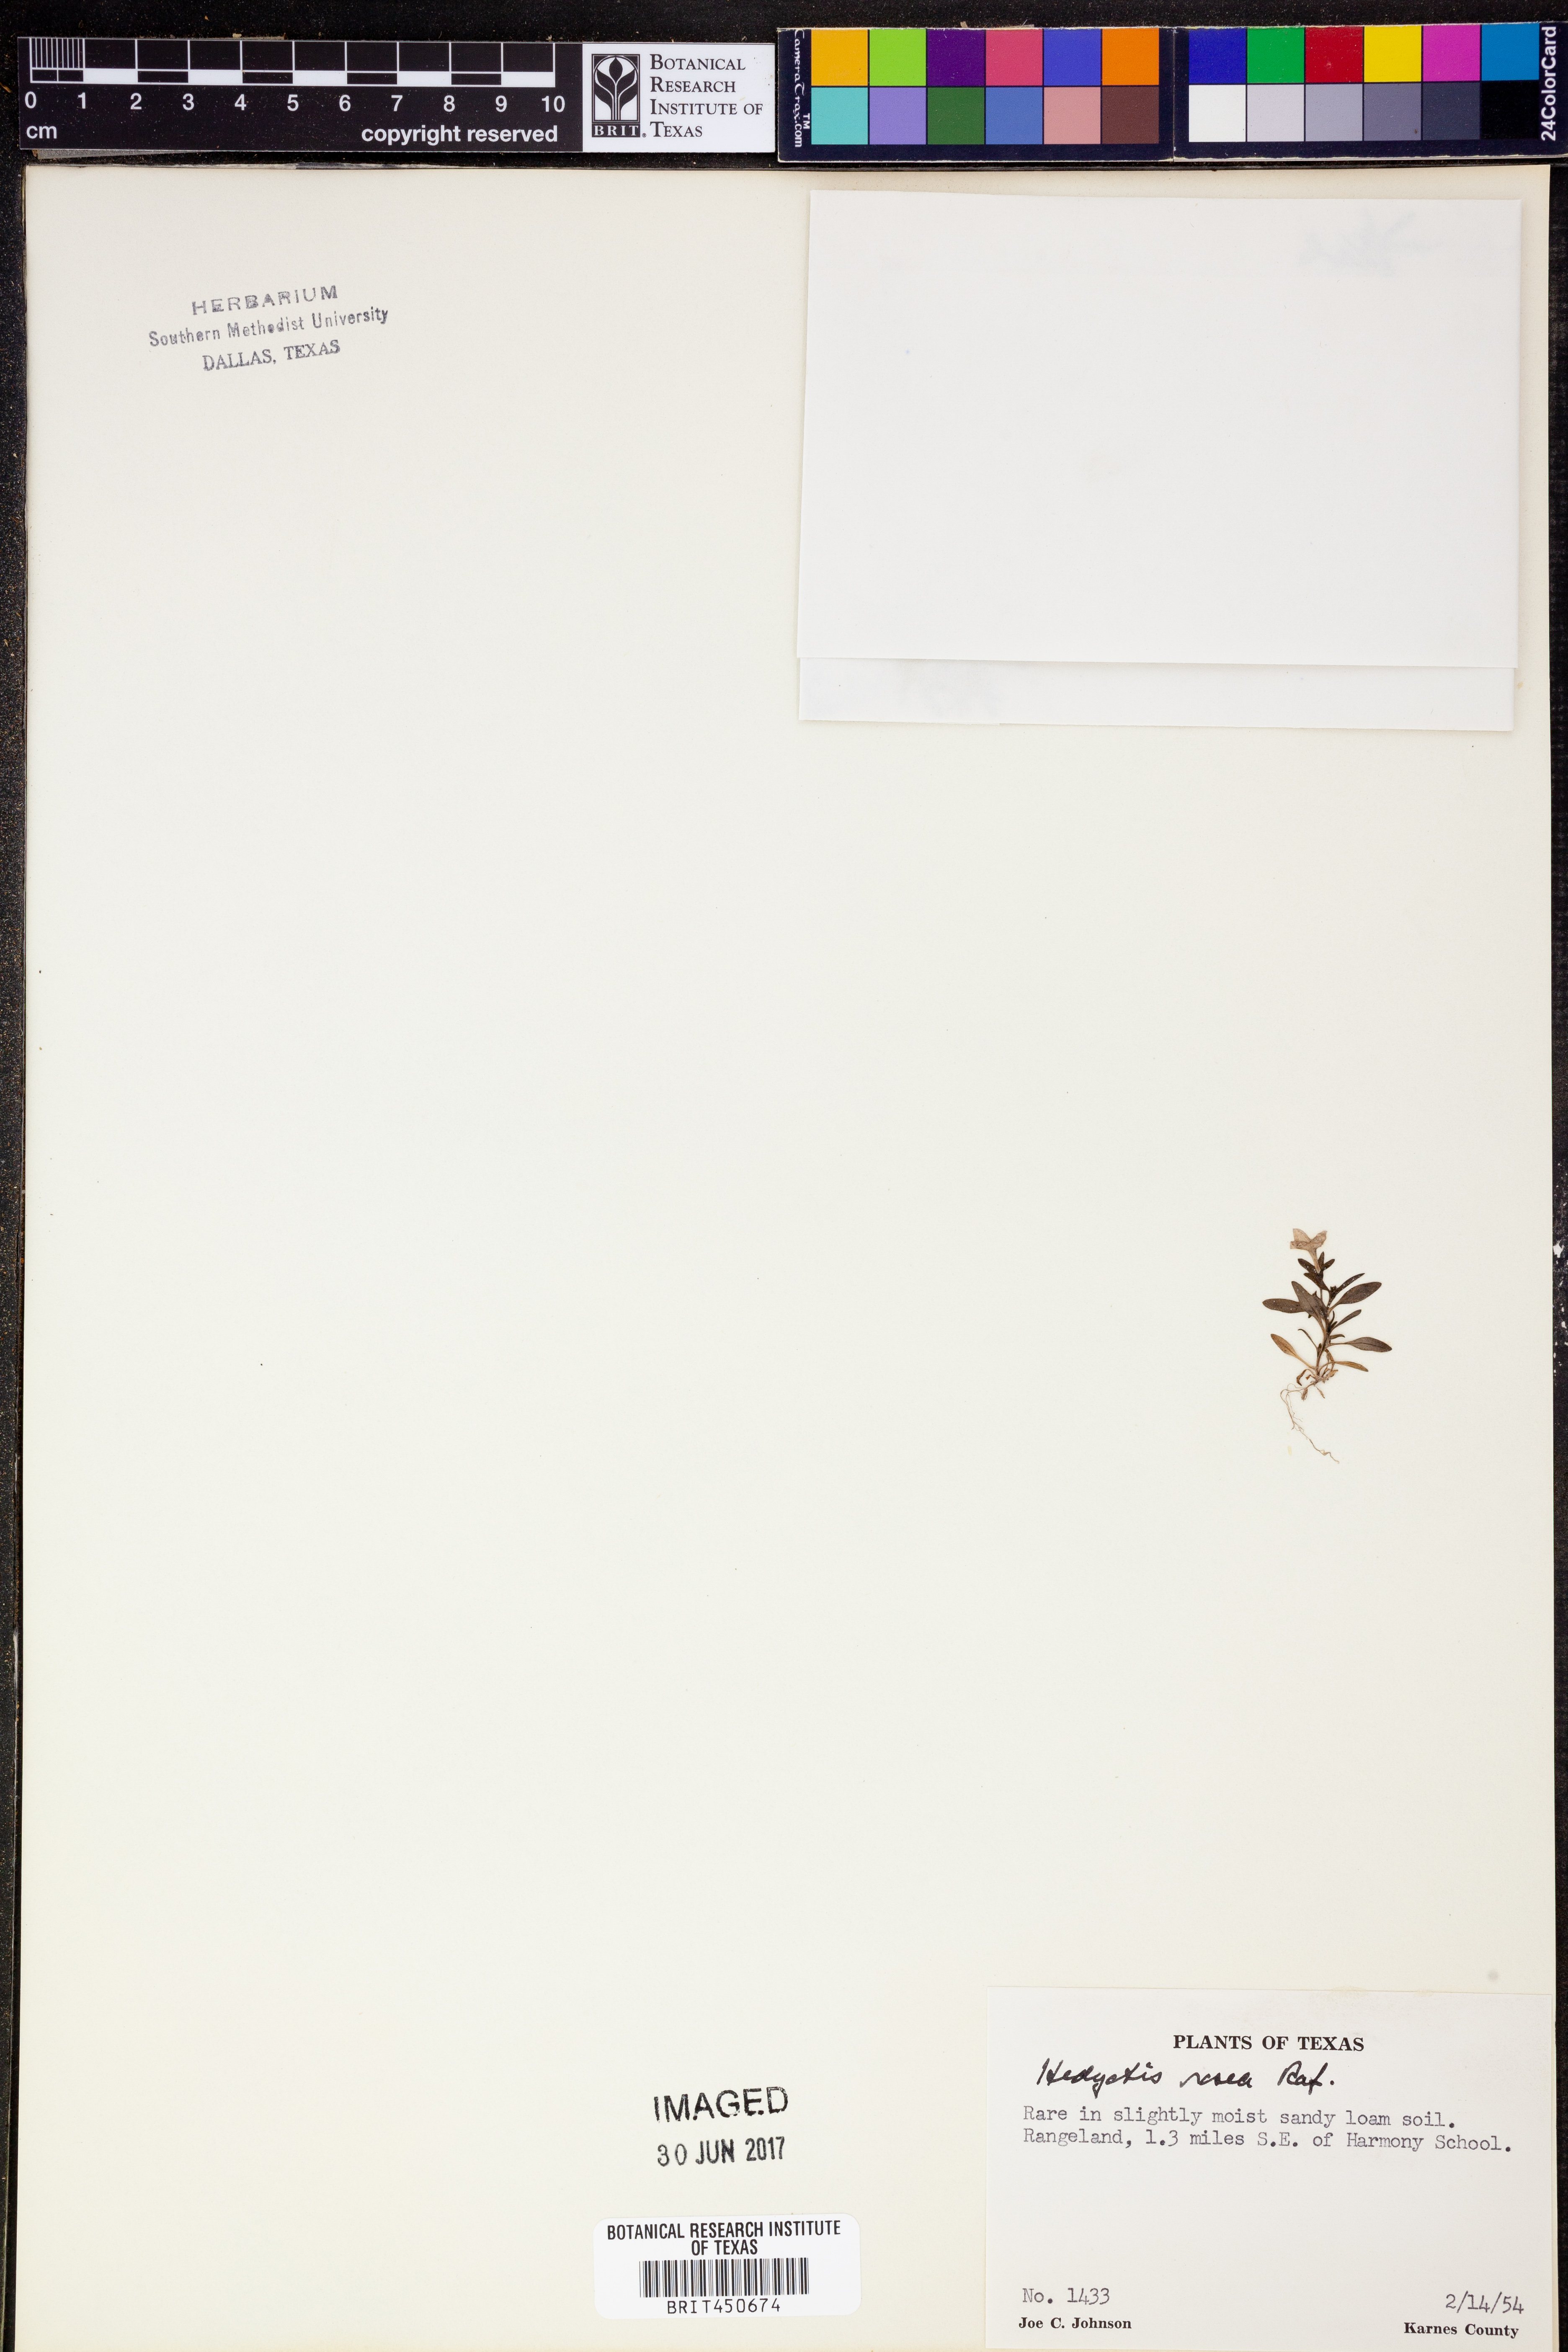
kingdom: Plantae
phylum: Tracheophyta
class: Magnoliopsida
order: Gentianales
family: Rubiaceae
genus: Houstonia
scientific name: Houstonia rosea
